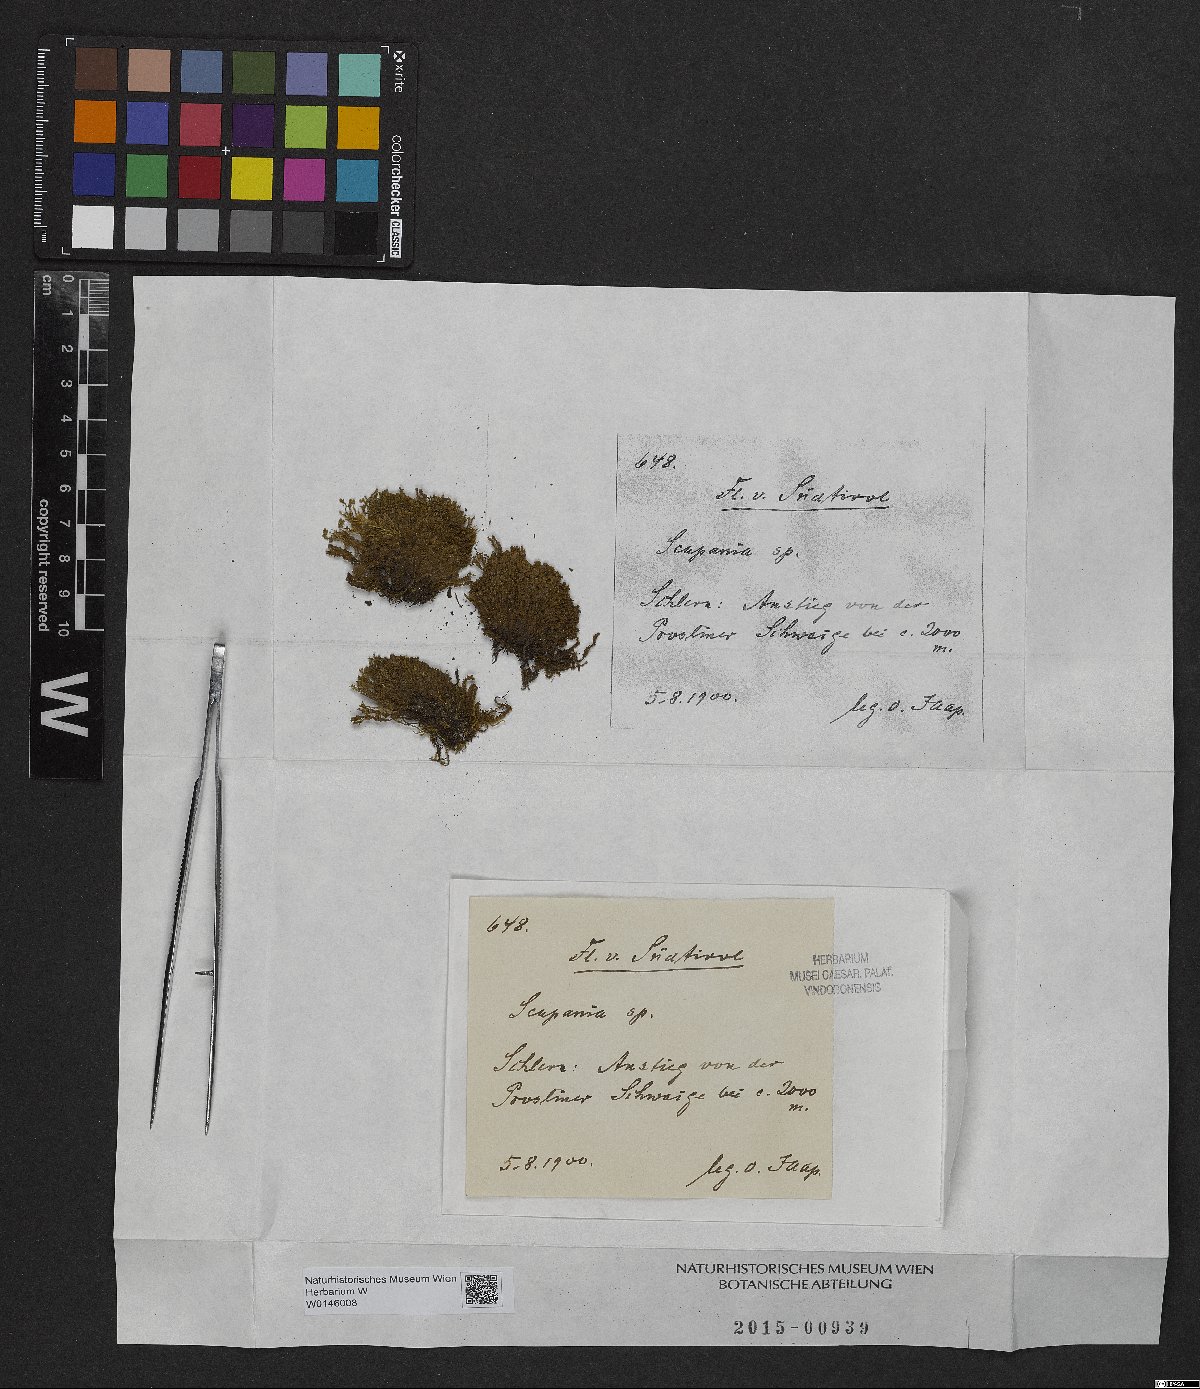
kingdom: Plantae
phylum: Marchantiophyta
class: Jungermanniopsida
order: Jungermanniales
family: Scapaniaceae
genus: Scapania
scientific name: Scapania
